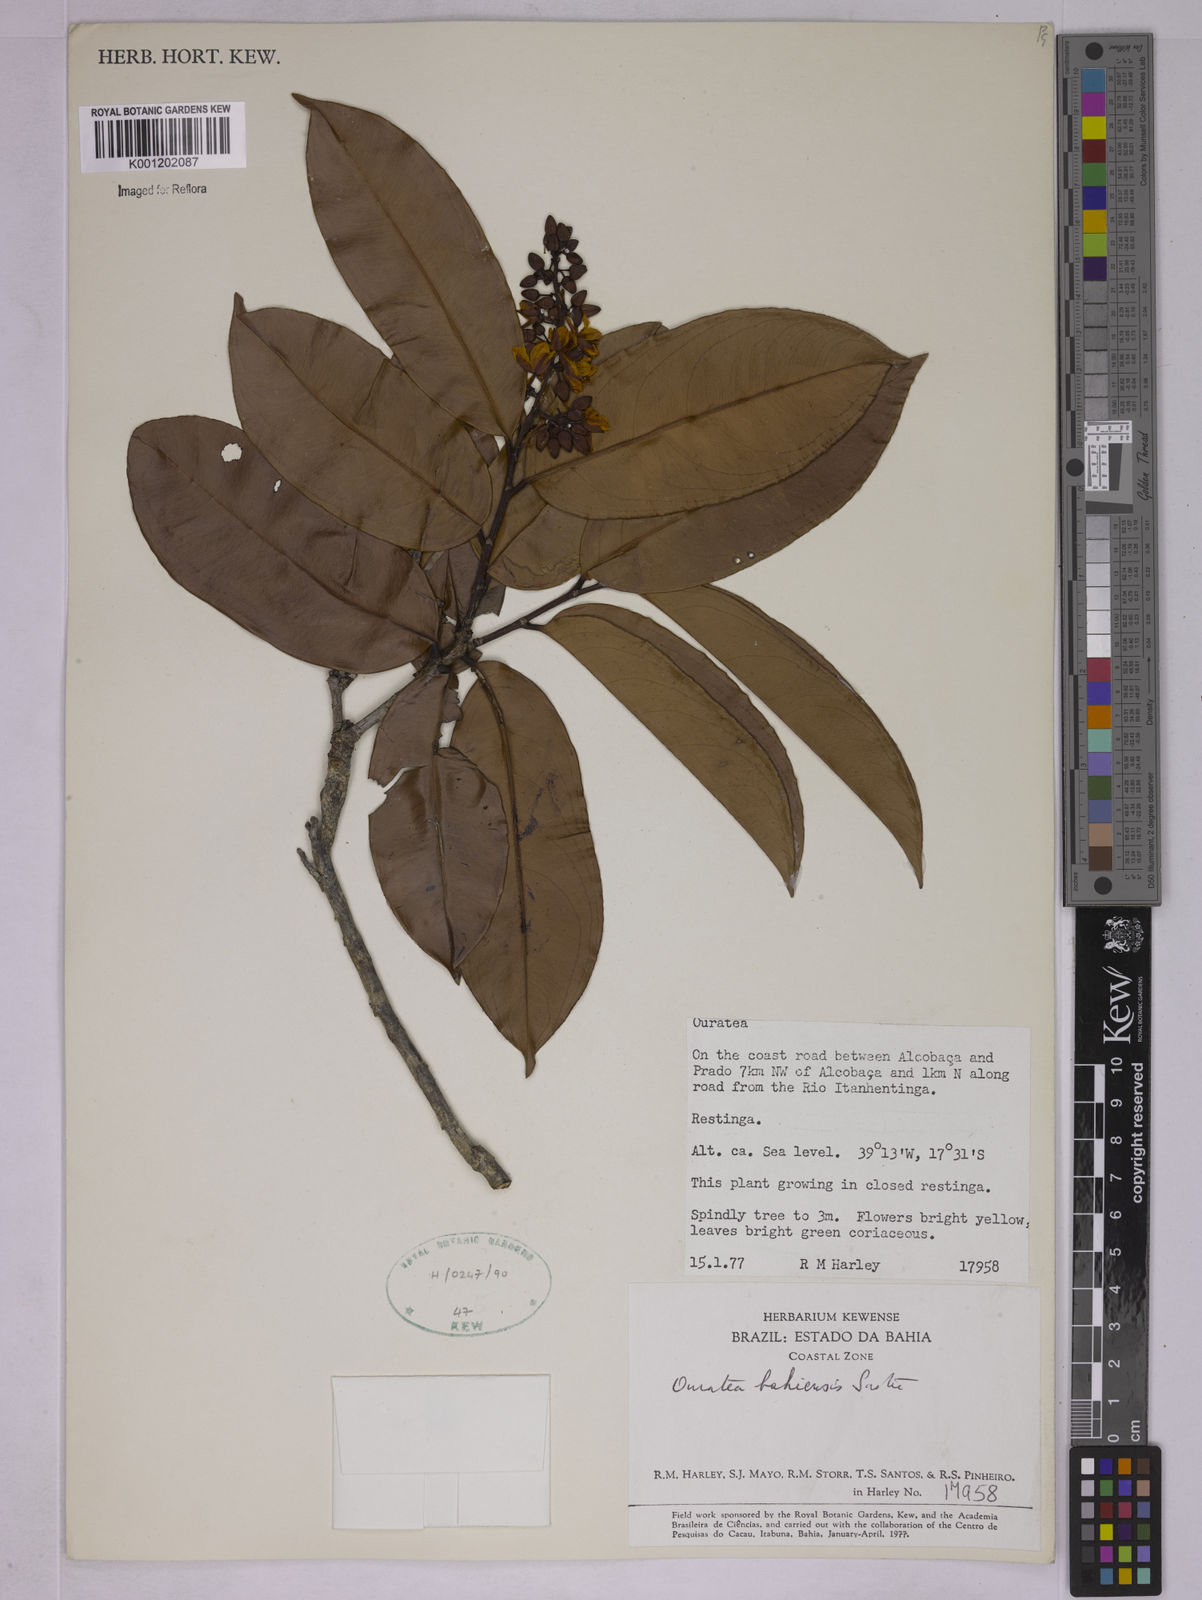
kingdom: Plantae
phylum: Tracheophyta
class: Magnoliopsida
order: Malpighiales
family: Ochnaceae
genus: Ouratea
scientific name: Ouratea bahiensis
